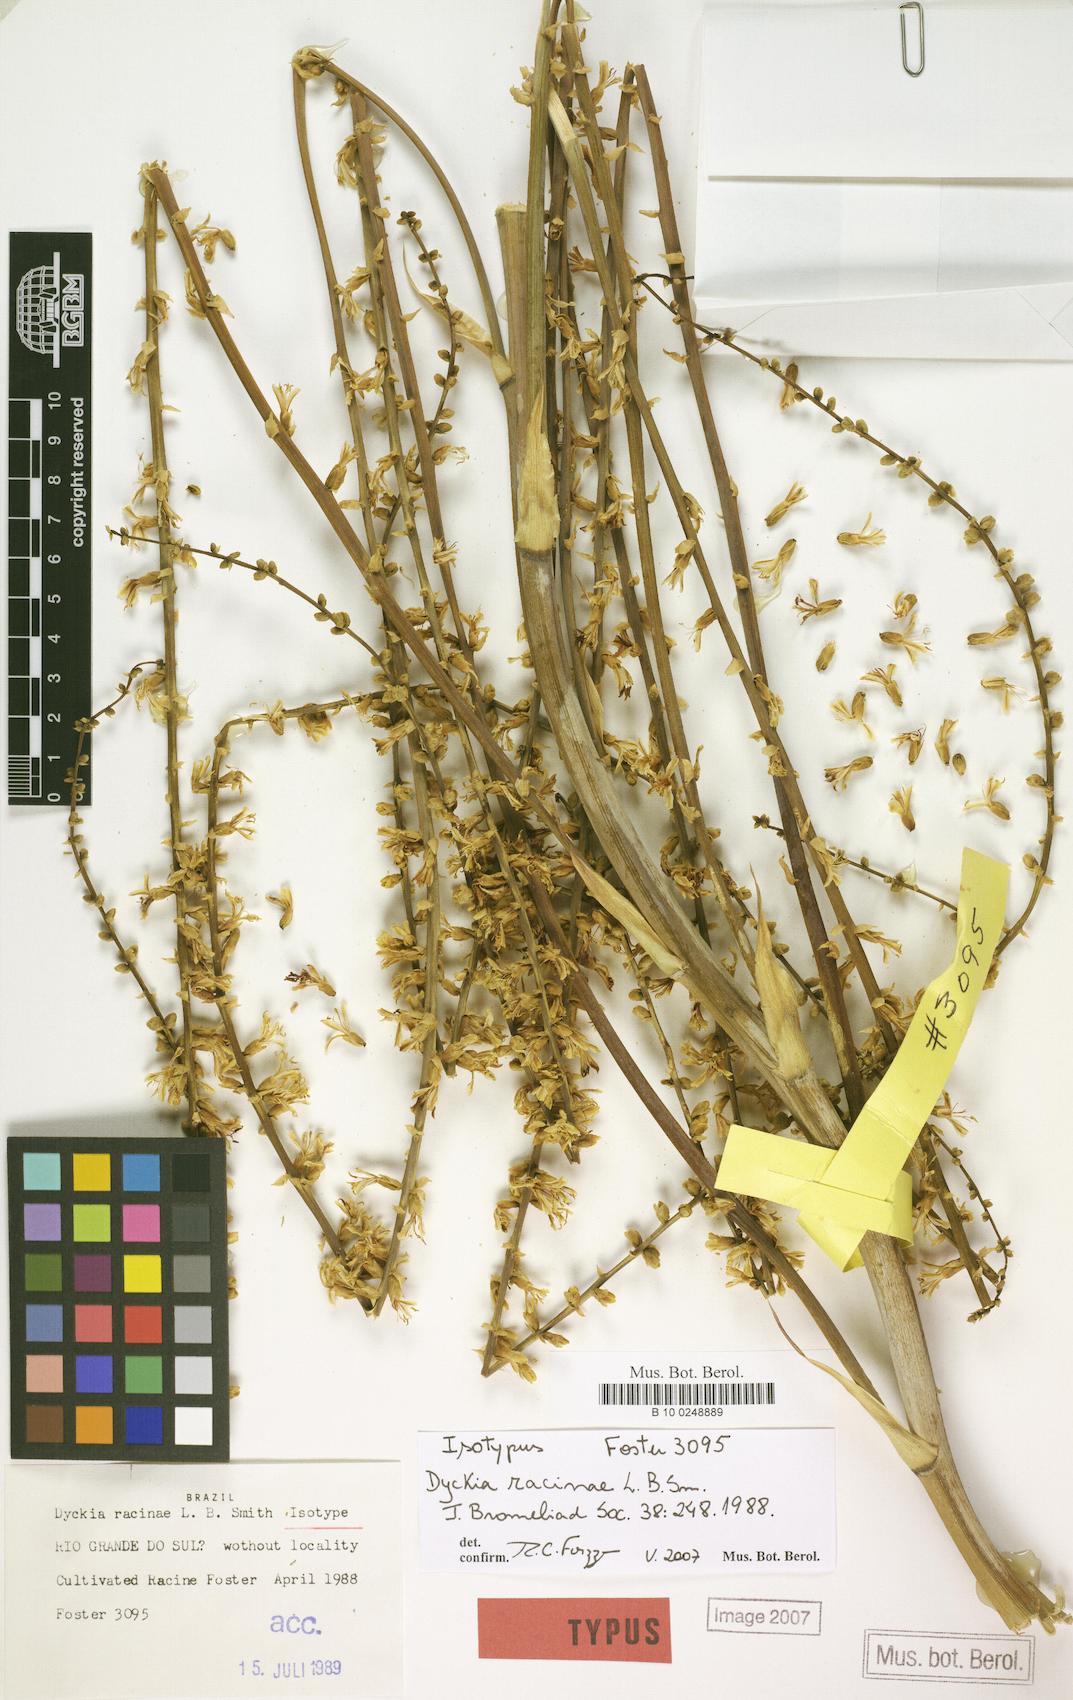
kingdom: Plantae
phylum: Tracheophyta
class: Liliopsida
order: Poales
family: Bromeliaceae
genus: Dyckia
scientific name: Dyckia racinae
